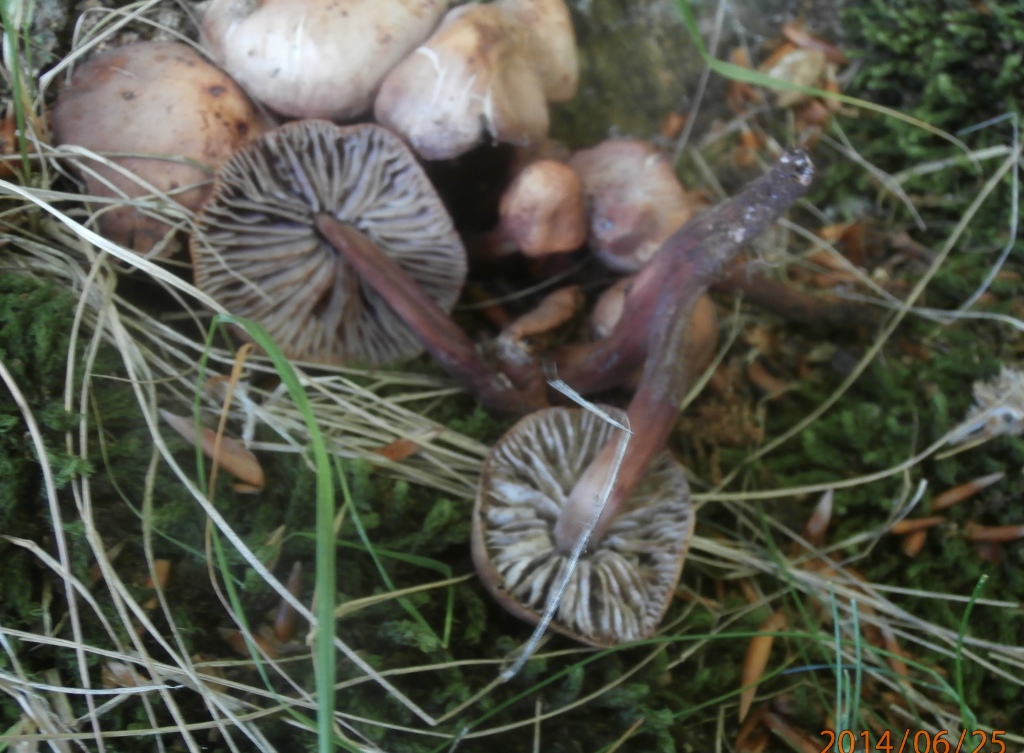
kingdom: Fungi
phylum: Basidiomycota
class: Agaricomycetes
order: Agaricales
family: Omphalotaceae
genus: Gymnopus
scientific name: Gymnopus fusipes
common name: tenstokket fladhat
